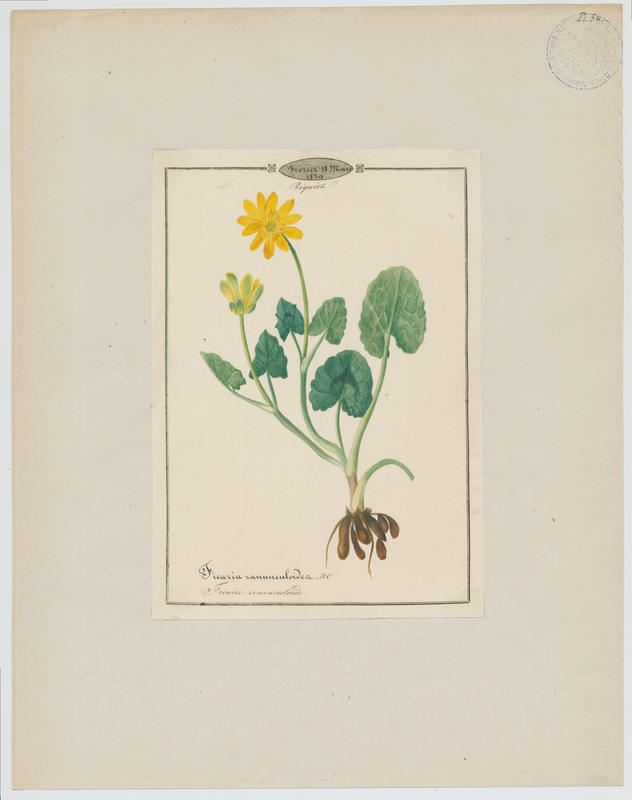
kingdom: Plantae
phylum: Tracheophyta
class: Magnoliopsida
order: Ranunculales
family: Ranunculaceae
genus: Ficaria
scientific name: Ficaria verna
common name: Lesser celandine
